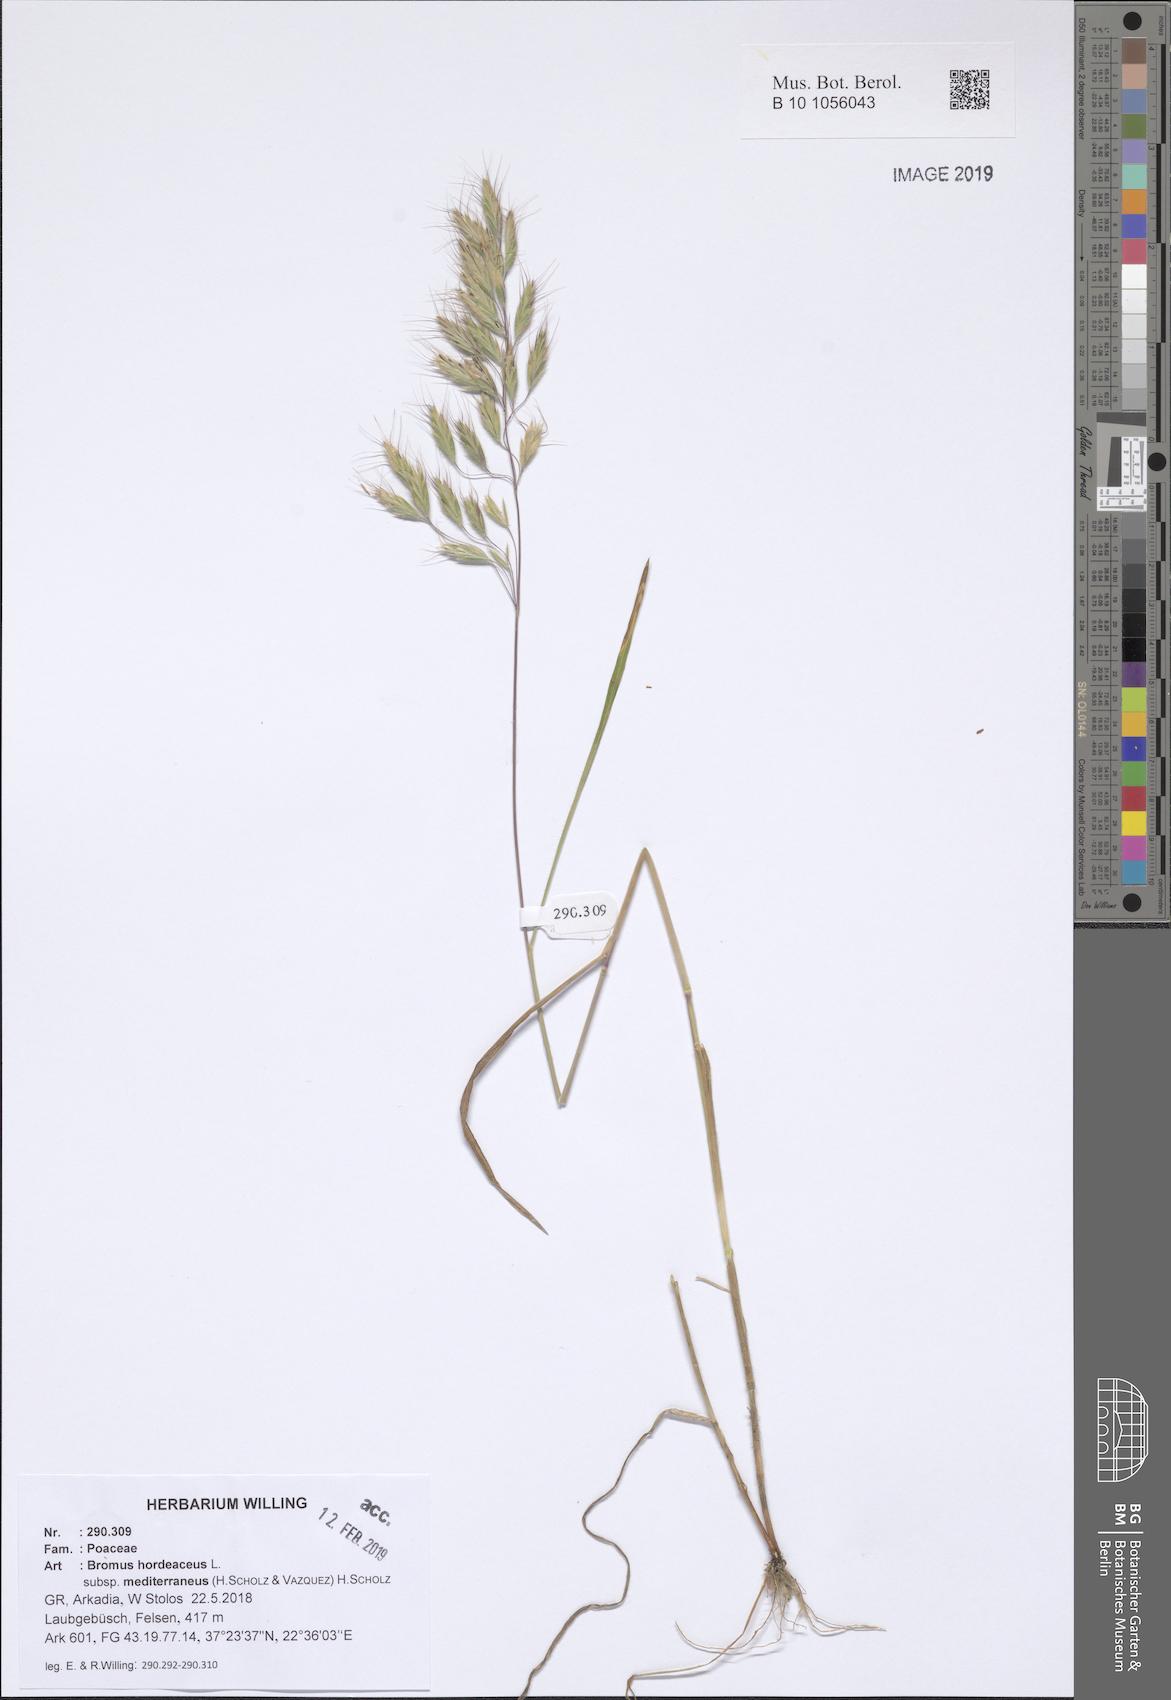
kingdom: Plantae
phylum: Tracheophyta
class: Liliopsida
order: Poales
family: Poaceae
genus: Bromus
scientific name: Bromus hordeaceus
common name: Soft brome
